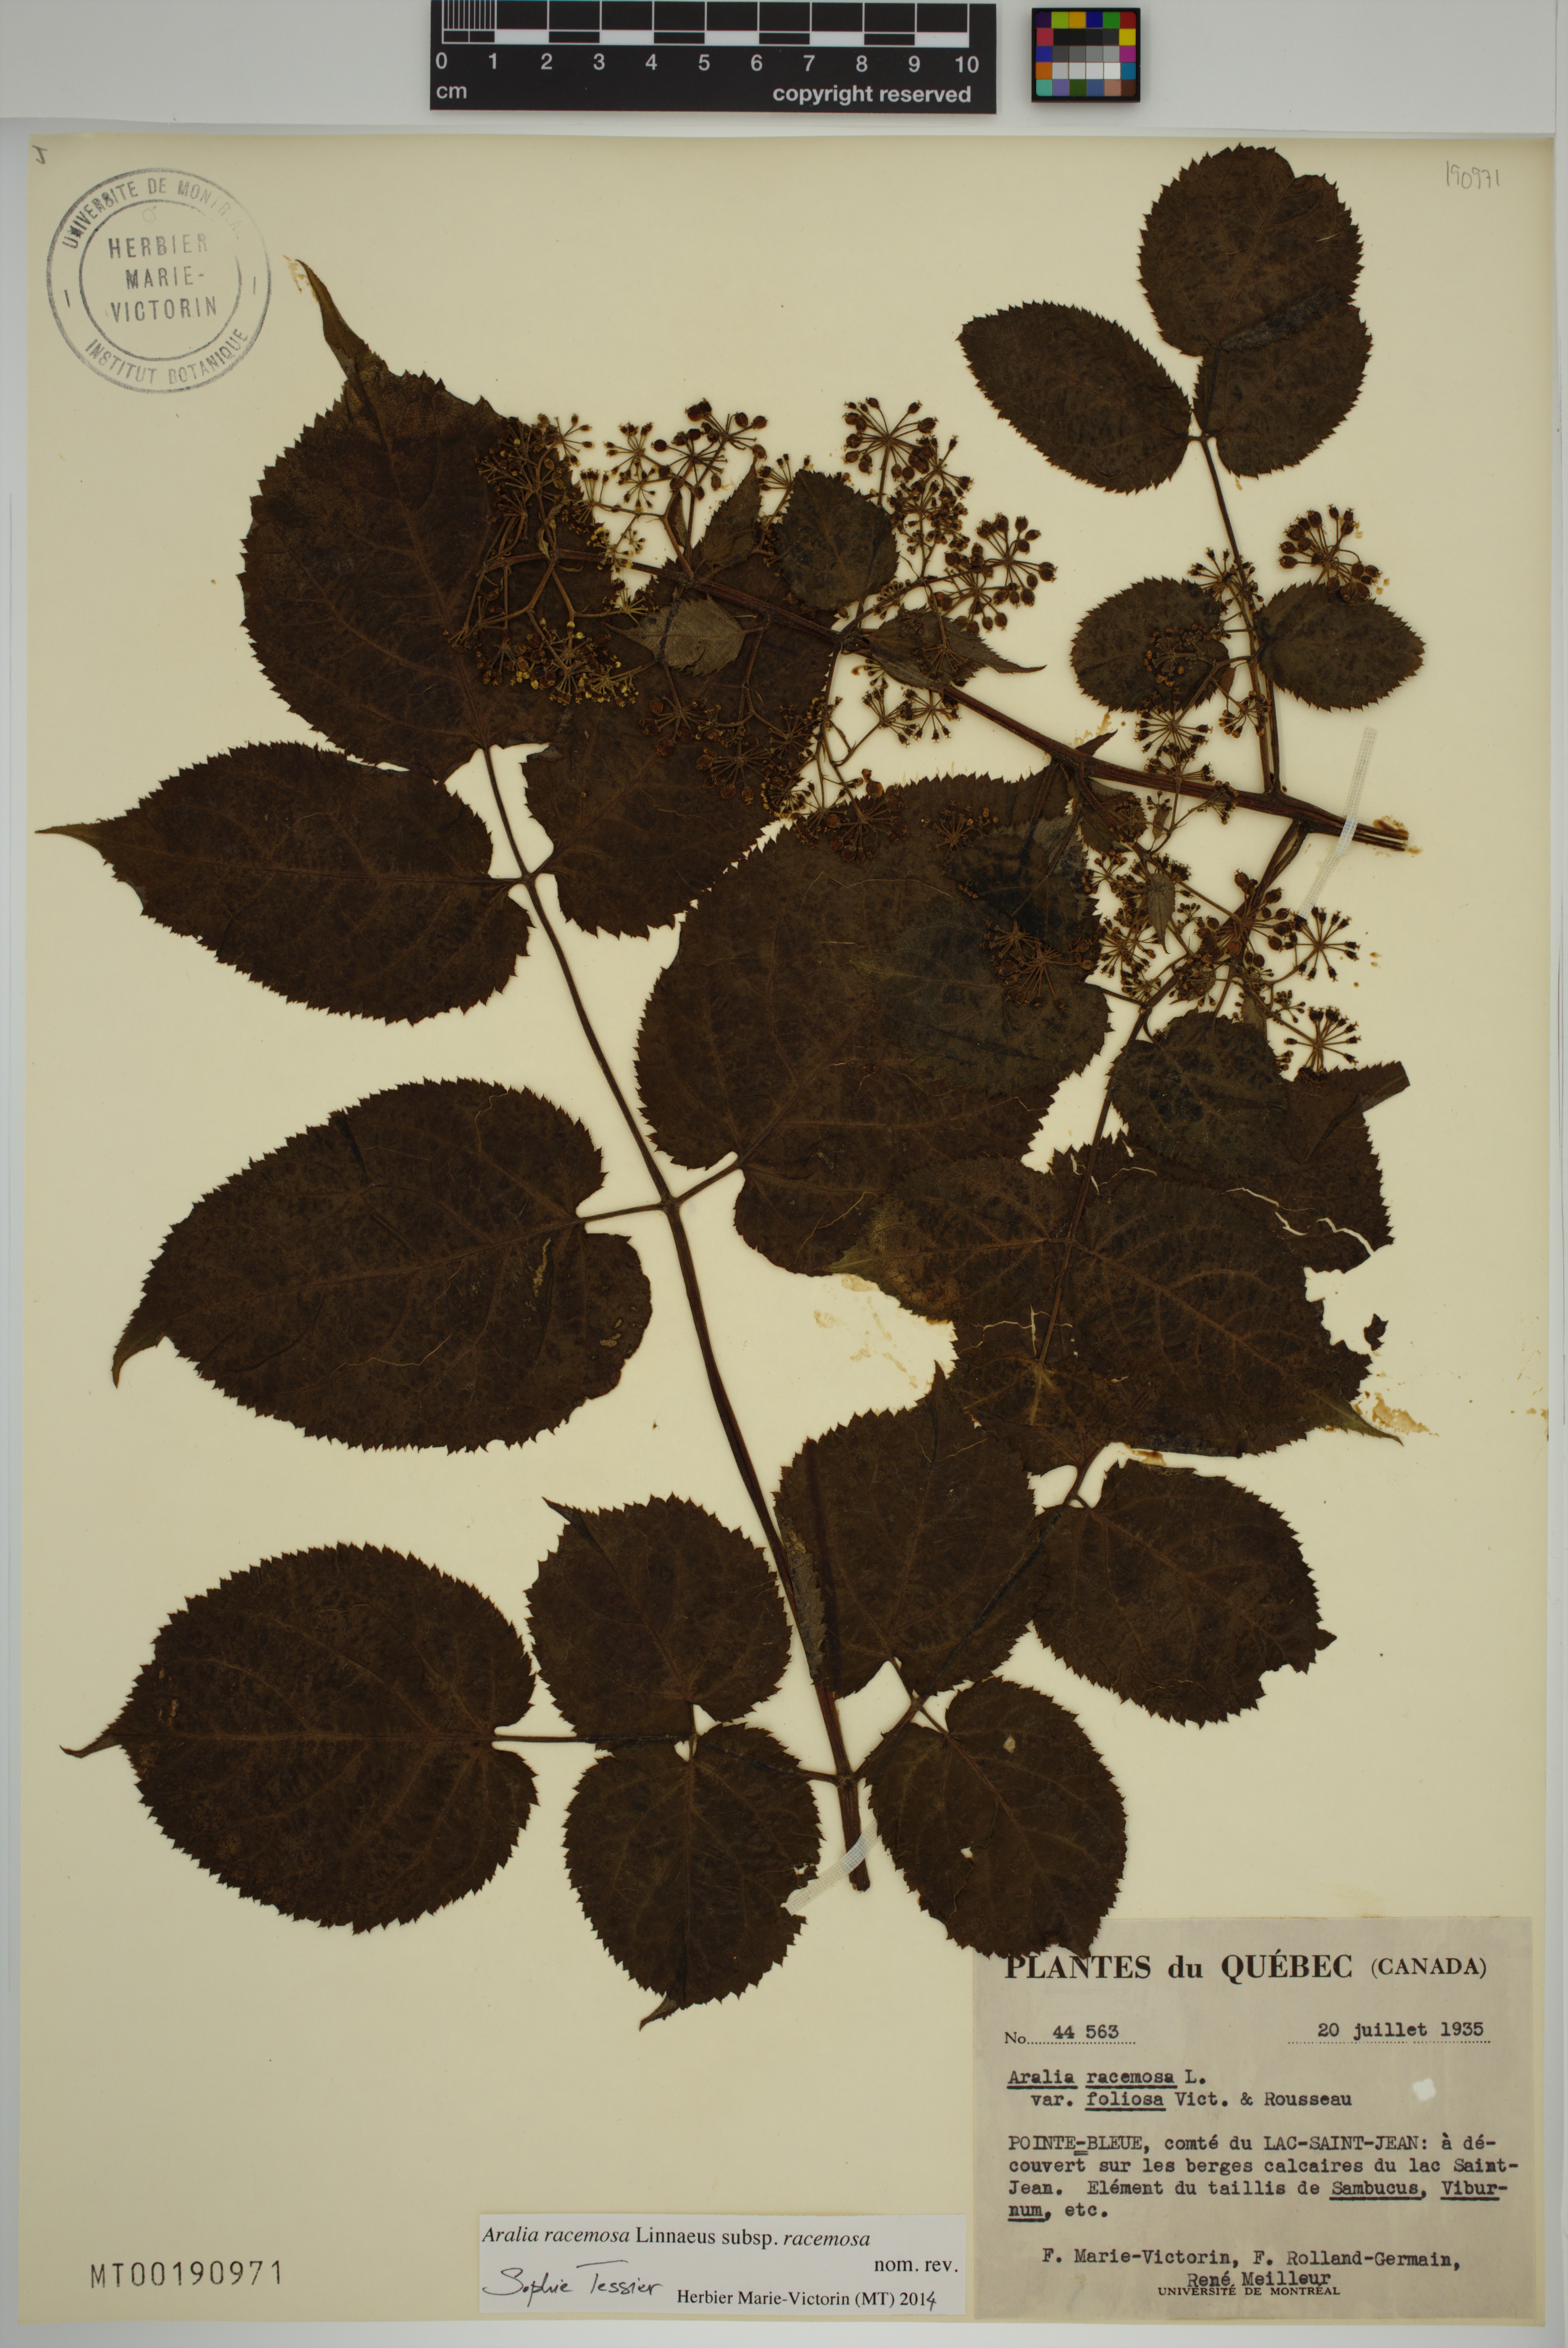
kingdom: Plantae
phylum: Tracheophyta
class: Magnoliopsida
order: Apiales
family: Araliaceae
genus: Aralia
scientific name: Aralia racemosa
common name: American-spikenard
